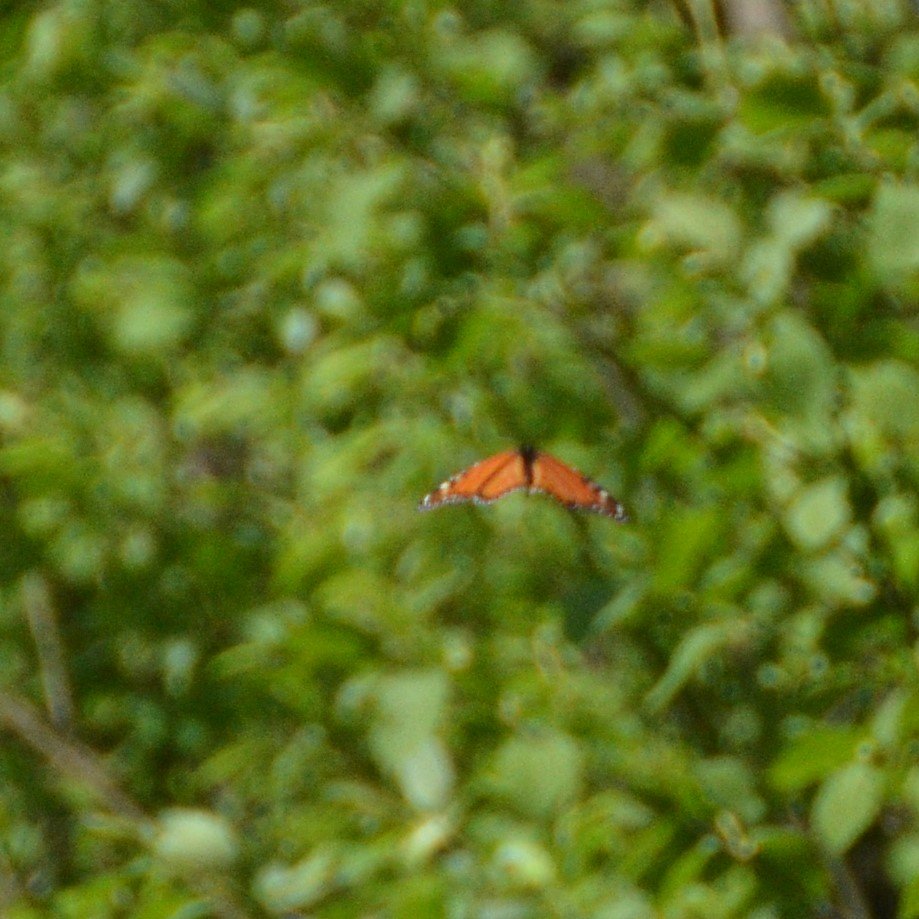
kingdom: Animalia
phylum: Arthropoda
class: Insecta
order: Lepidoptera
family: Nymphalidae
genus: Danaus
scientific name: Danaus plexippus
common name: Monarch
